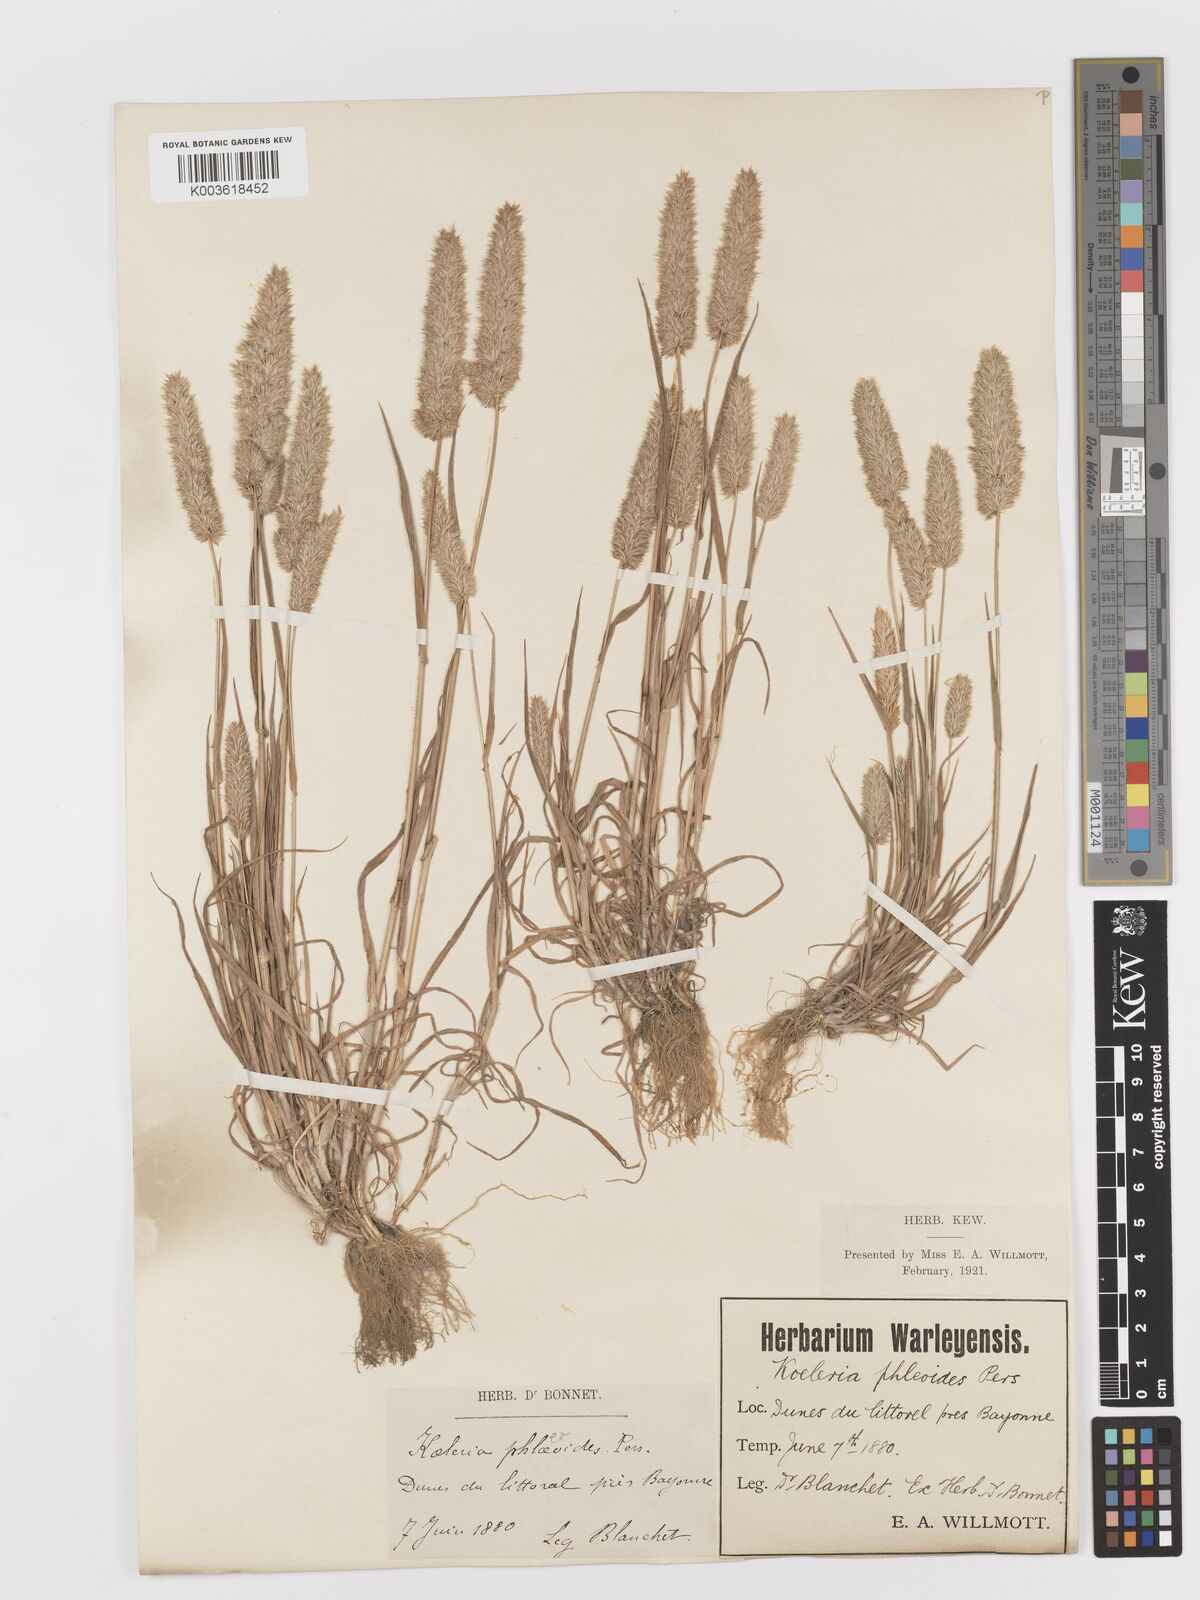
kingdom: Plantae
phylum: Tracheophyta
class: Liliopsida
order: Poales
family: Poaceae
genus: Rostraria
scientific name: Rostraria cristata
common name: Mediterranean hair-grass
